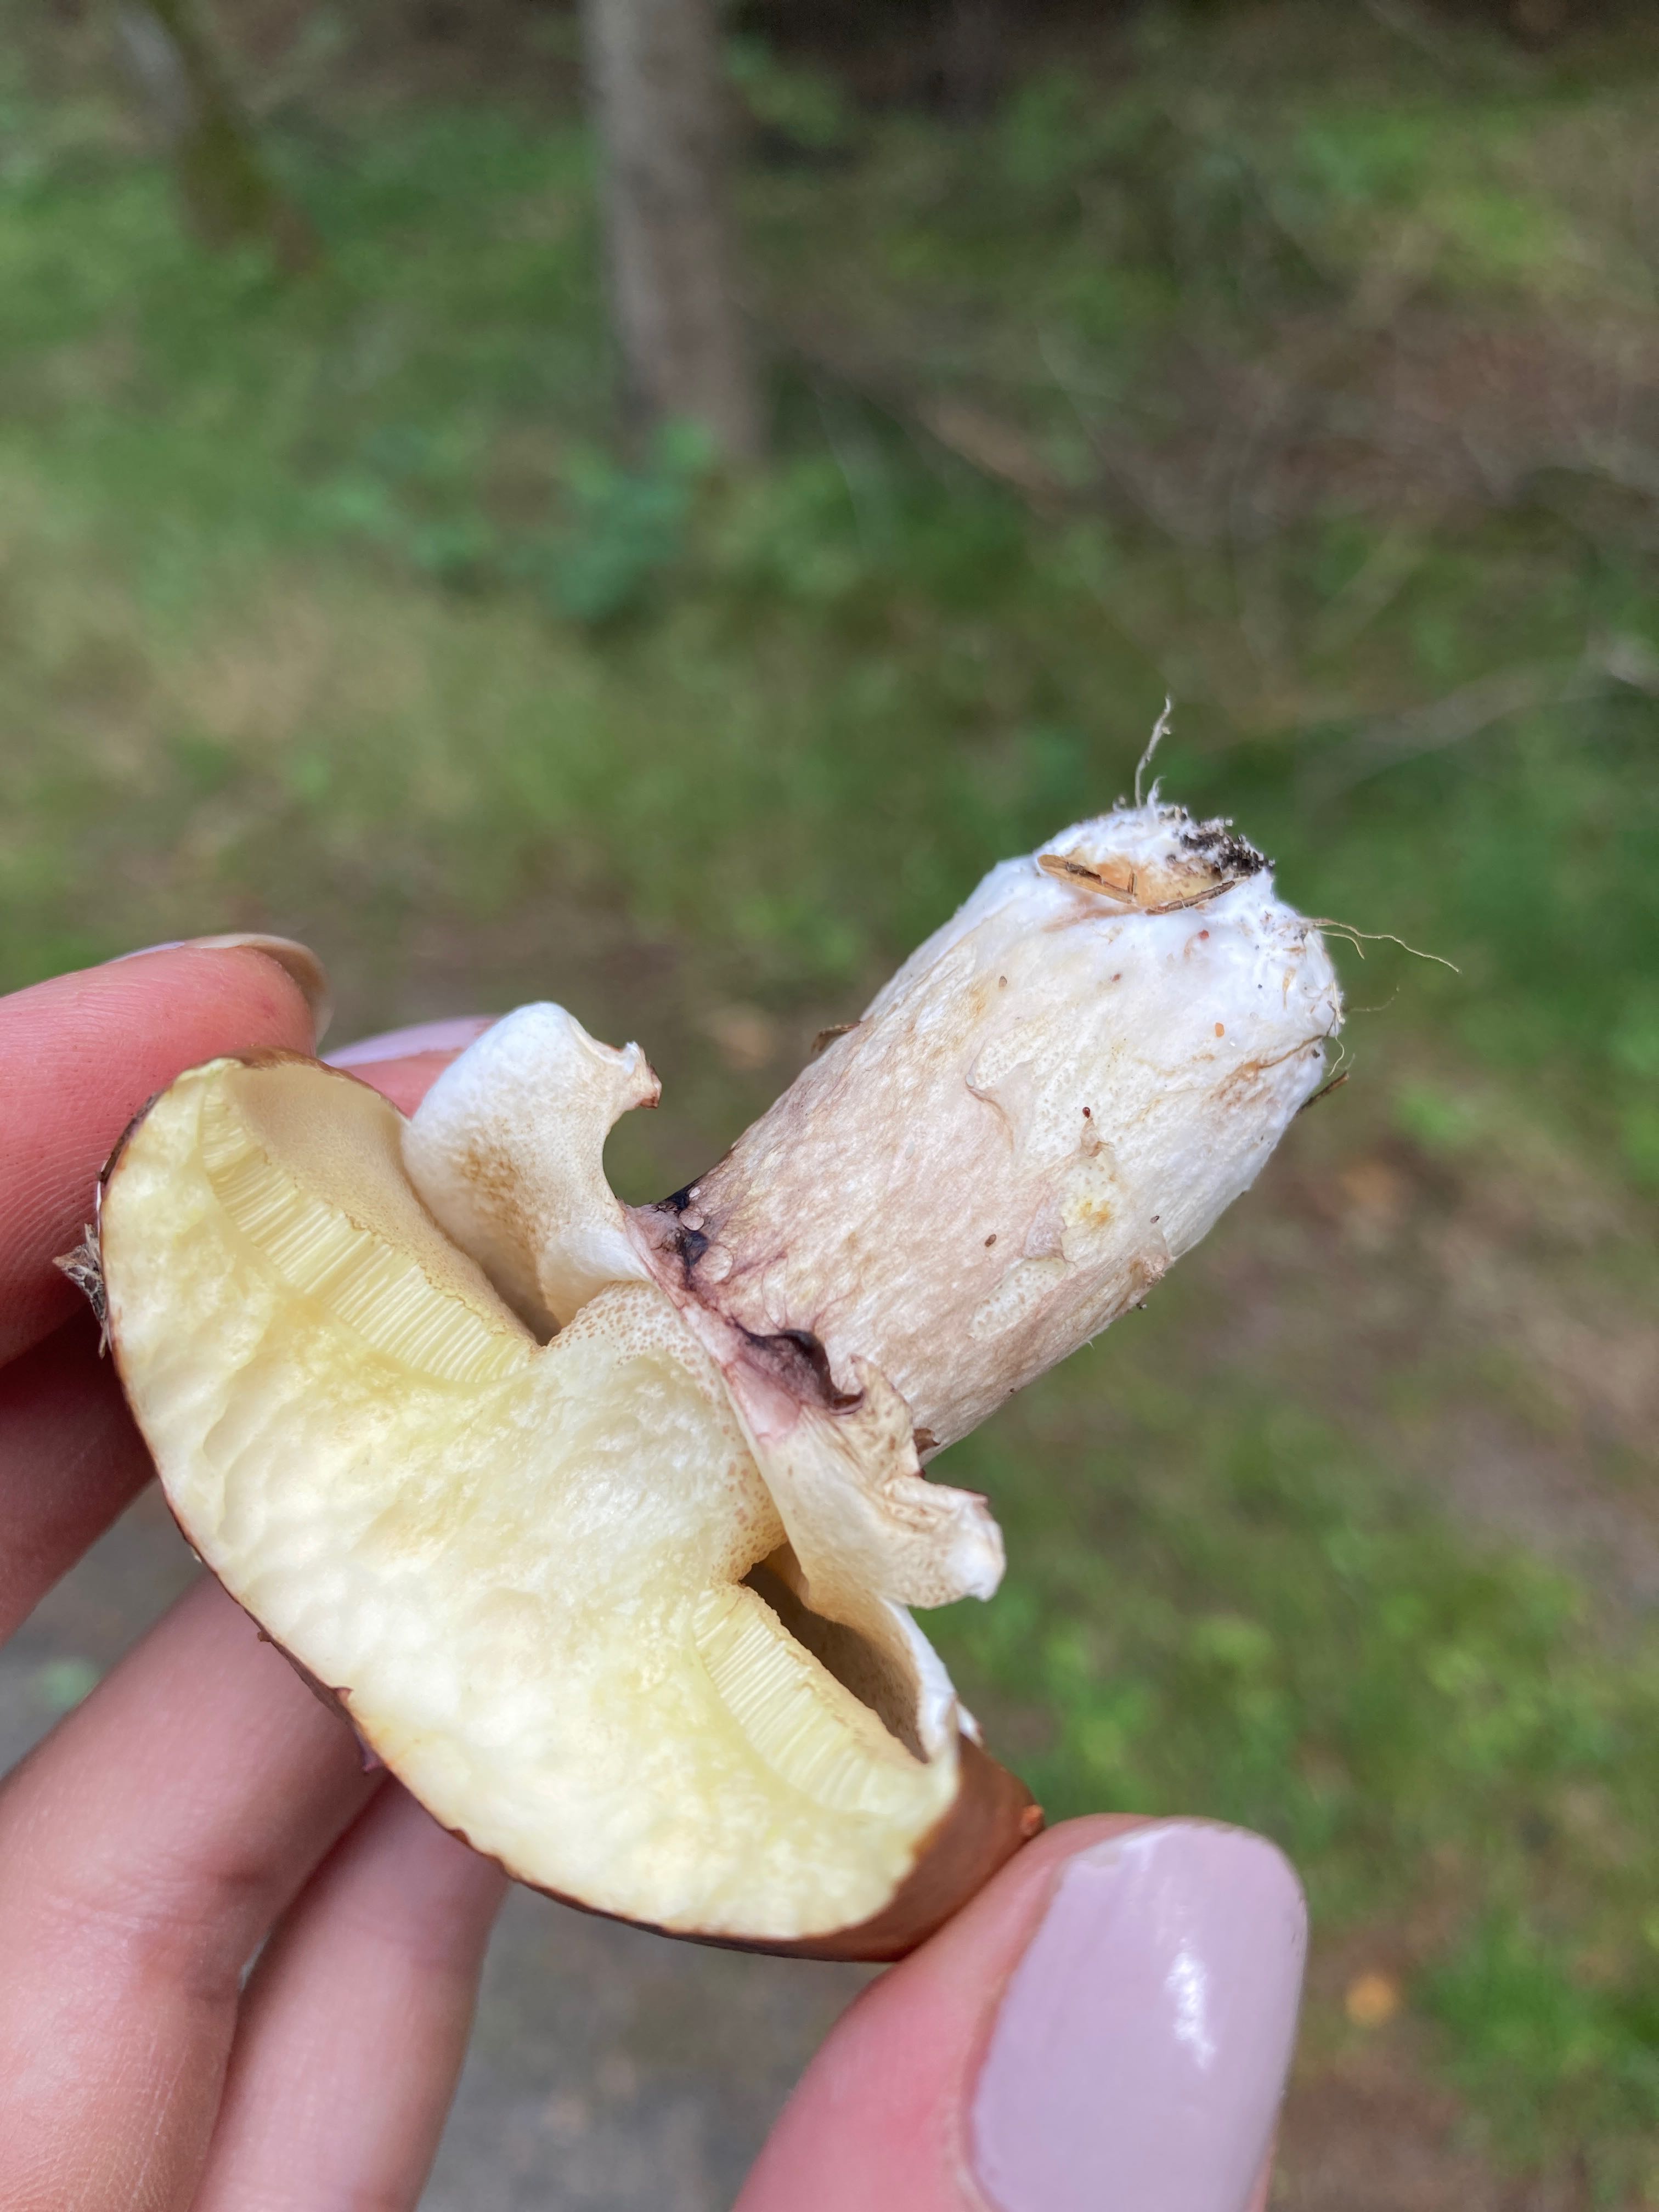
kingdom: Fungi
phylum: Basidiomycota
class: Agaricomycetes
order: Boletales
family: Suillaceae
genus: Suillus
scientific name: Suillus luteus
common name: brungul slimrørhat
